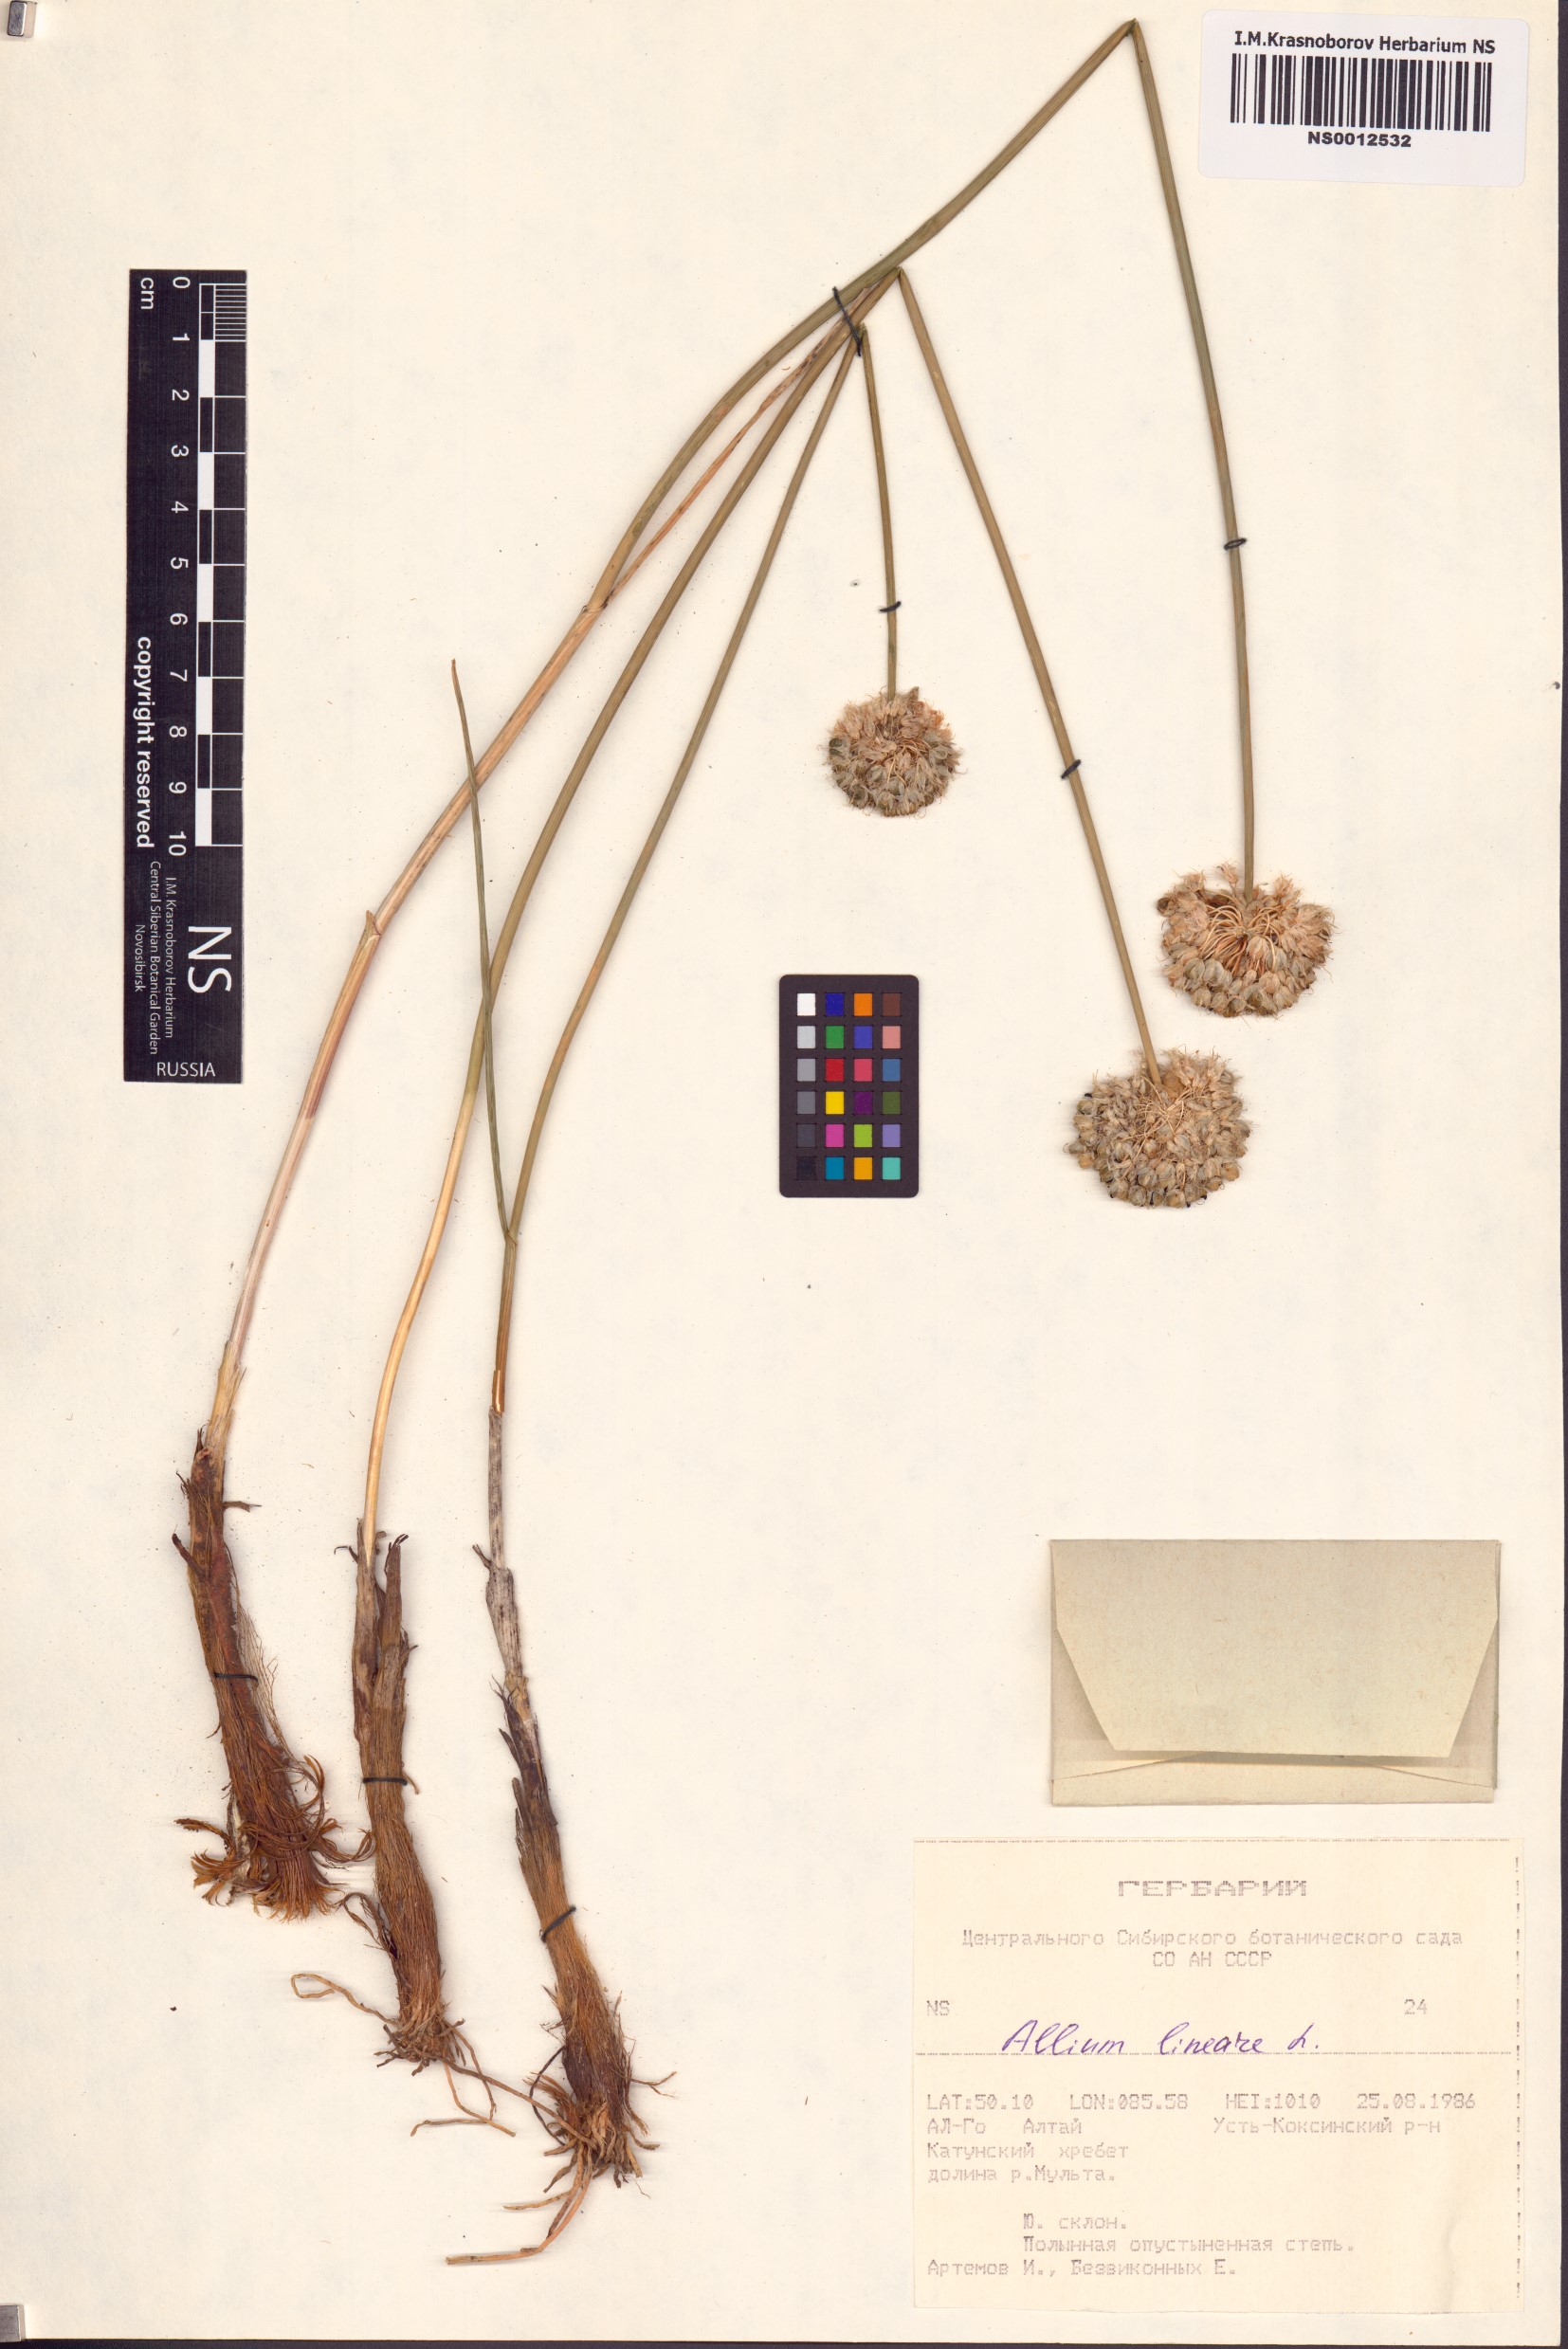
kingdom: Plantae
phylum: Tracheophyta
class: Liliopsida
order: Asparagales
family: Amaryllidaceae
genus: Allium
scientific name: Allium lineare
